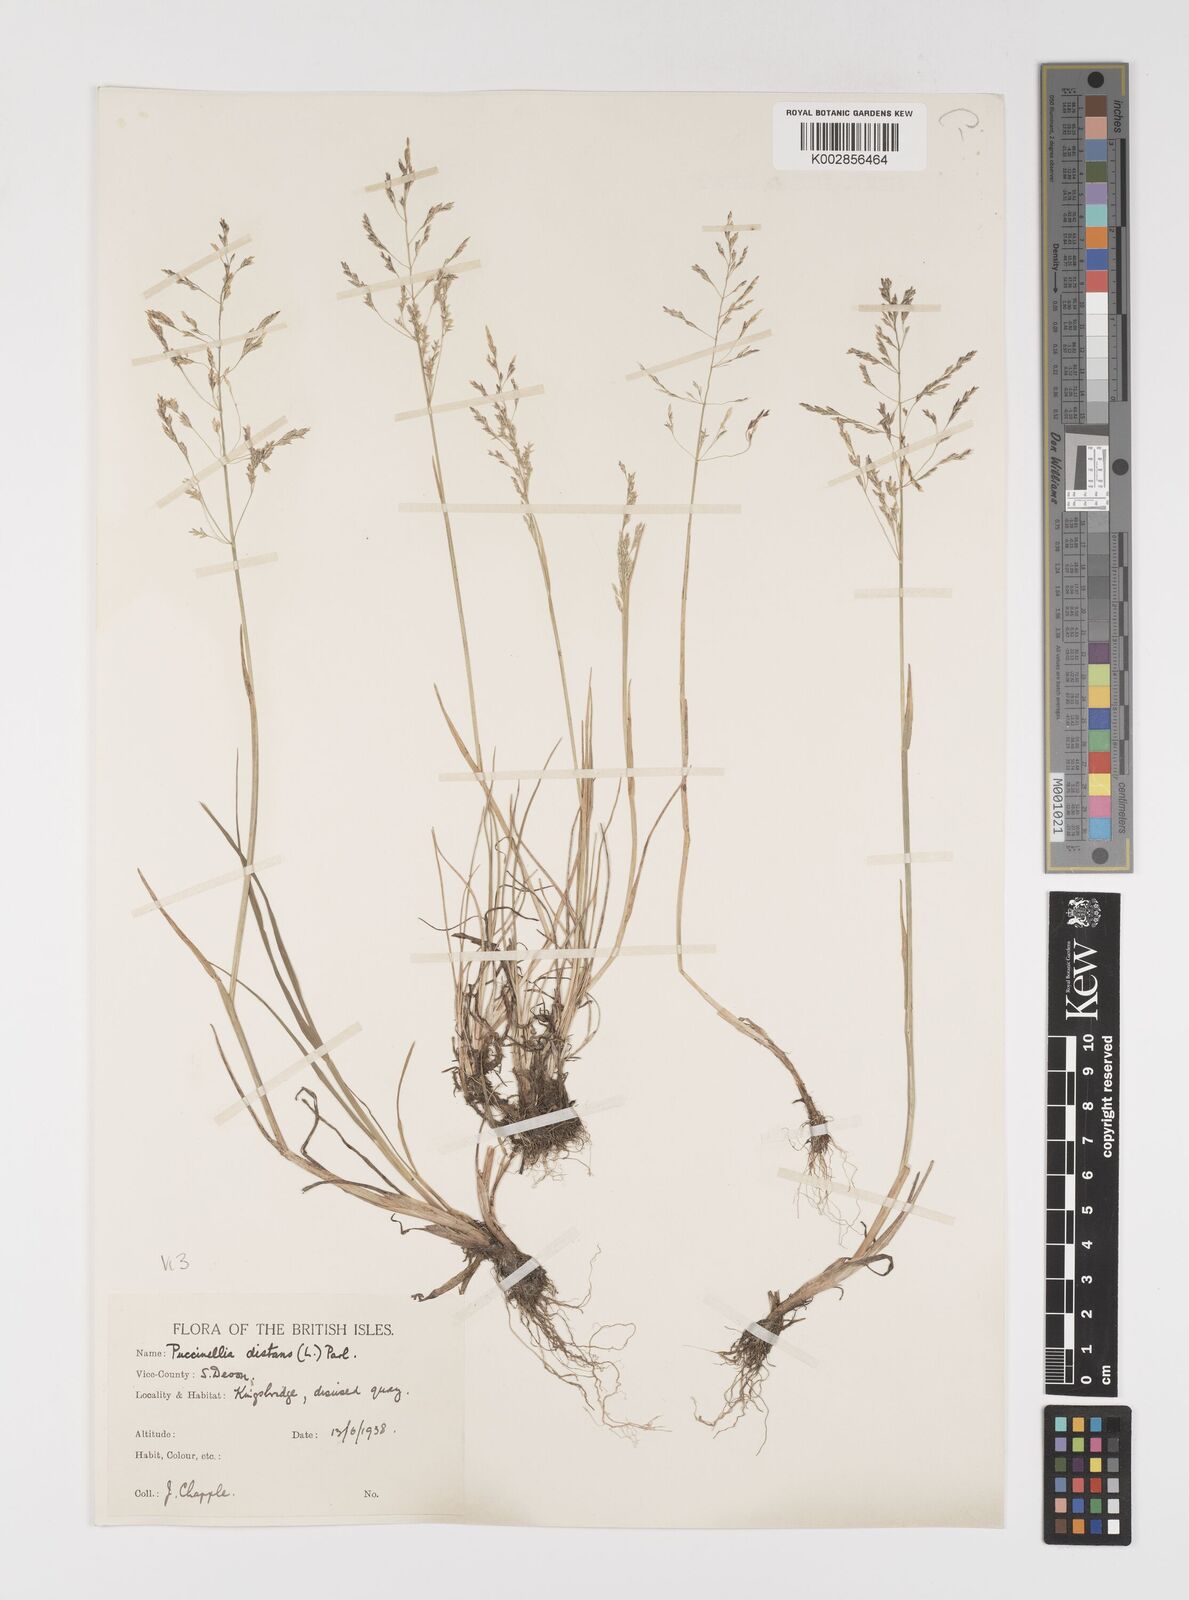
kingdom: Plantae
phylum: Tracheophyta
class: Liliopsida
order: Poales
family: Poaceae
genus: Puccinellia
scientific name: Puccinellia distans
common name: Weeping alkaligrass
